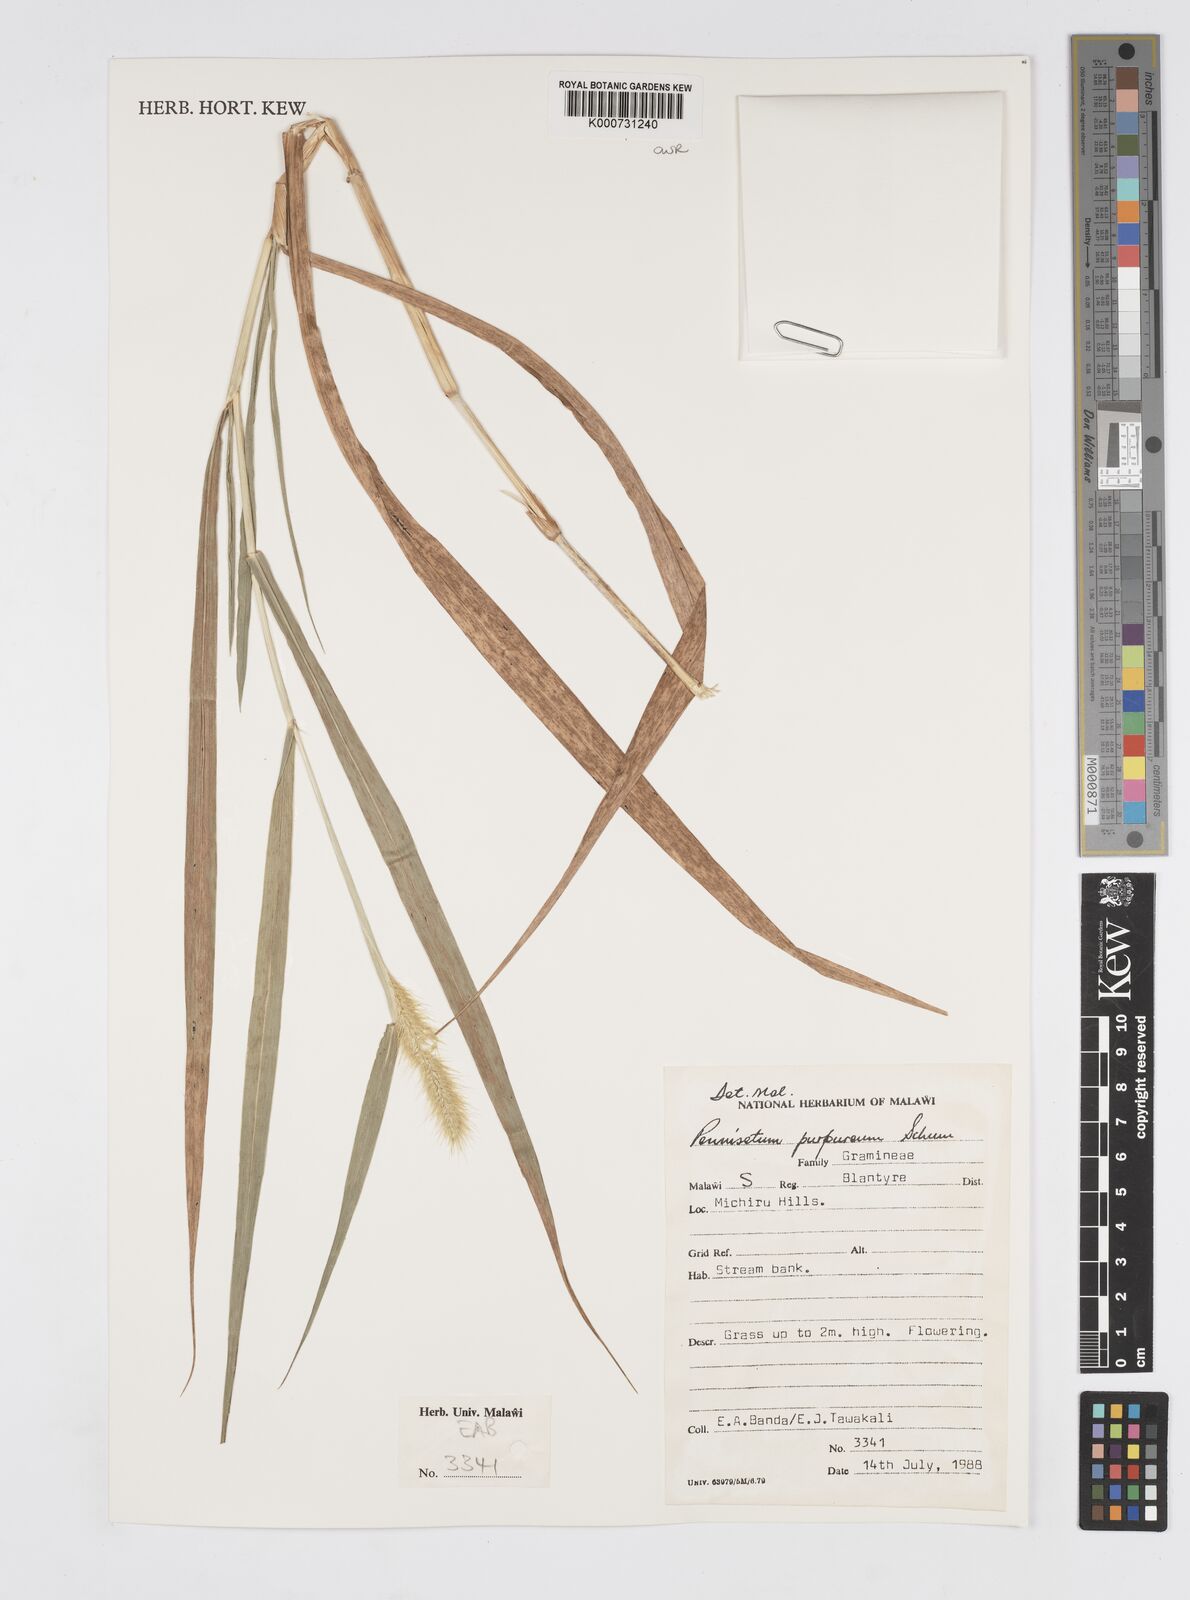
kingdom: Plantae
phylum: Tracheophyta
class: Liliopsida
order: Poales
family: Poaceae
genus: Cenchrus
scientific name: Cenchrus purpureus
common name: Elephant grass
